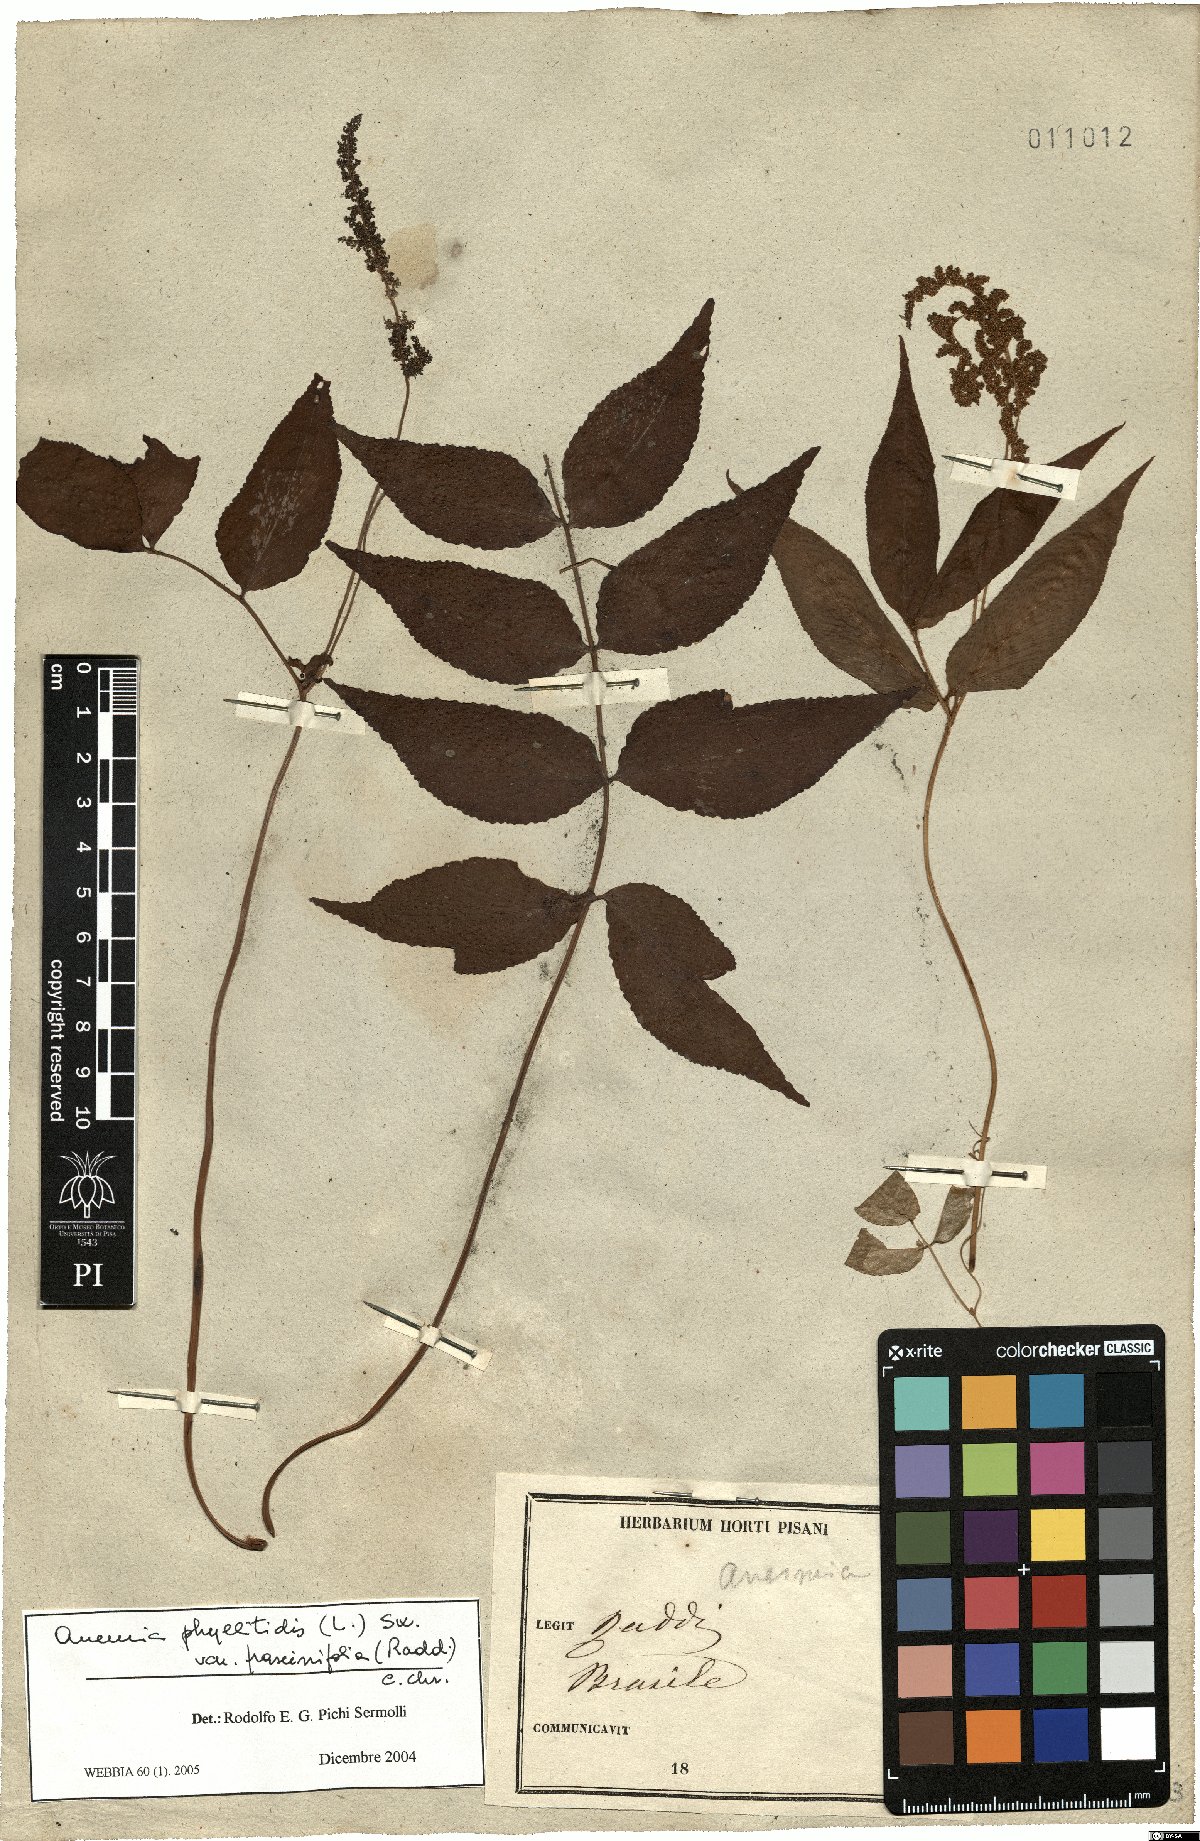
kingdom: Plantae
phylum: Tracheophyta
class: Polypodiopsida
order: Schizaeales
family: Anemiaceae
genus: Anemia
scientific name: Anemia phyllitidis
